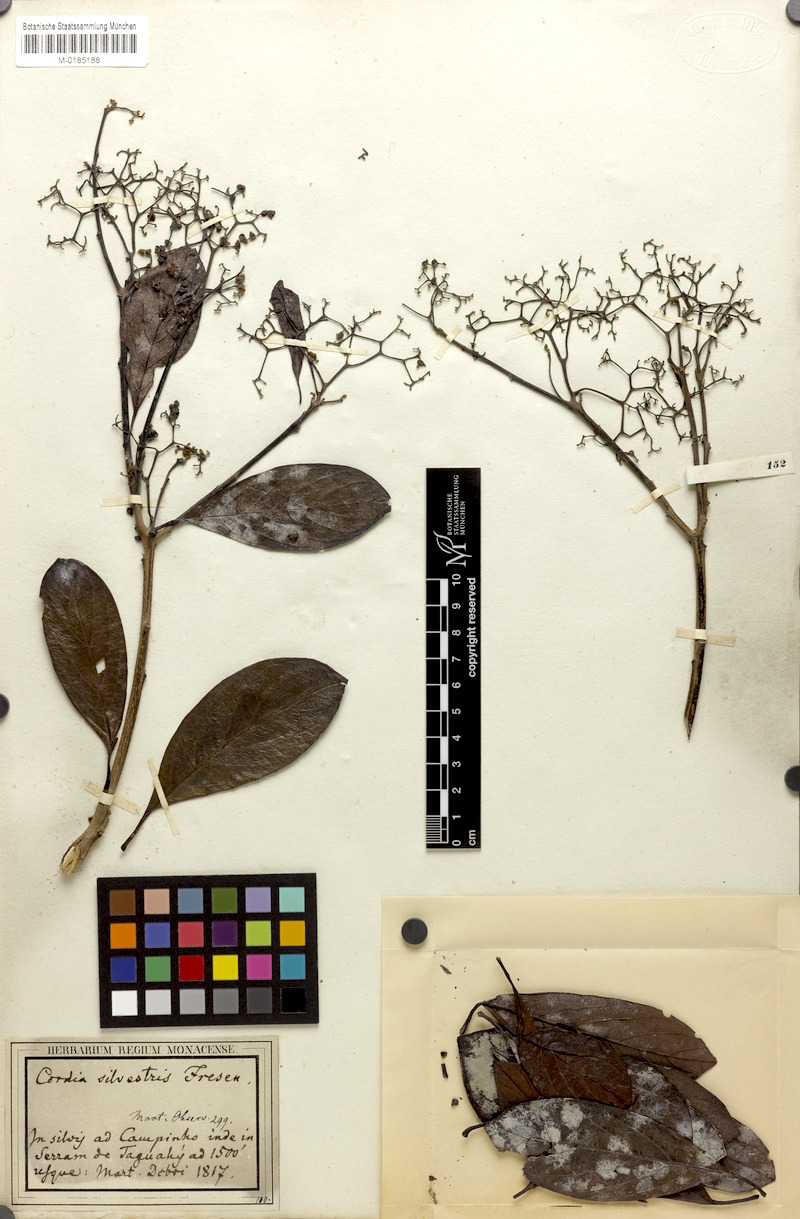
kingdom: Plantae
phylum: Tracheophyta
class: Magnoliopsida
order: Boraginales
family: Cordiaceae
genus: Cordia
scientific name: Cordia silvestris
